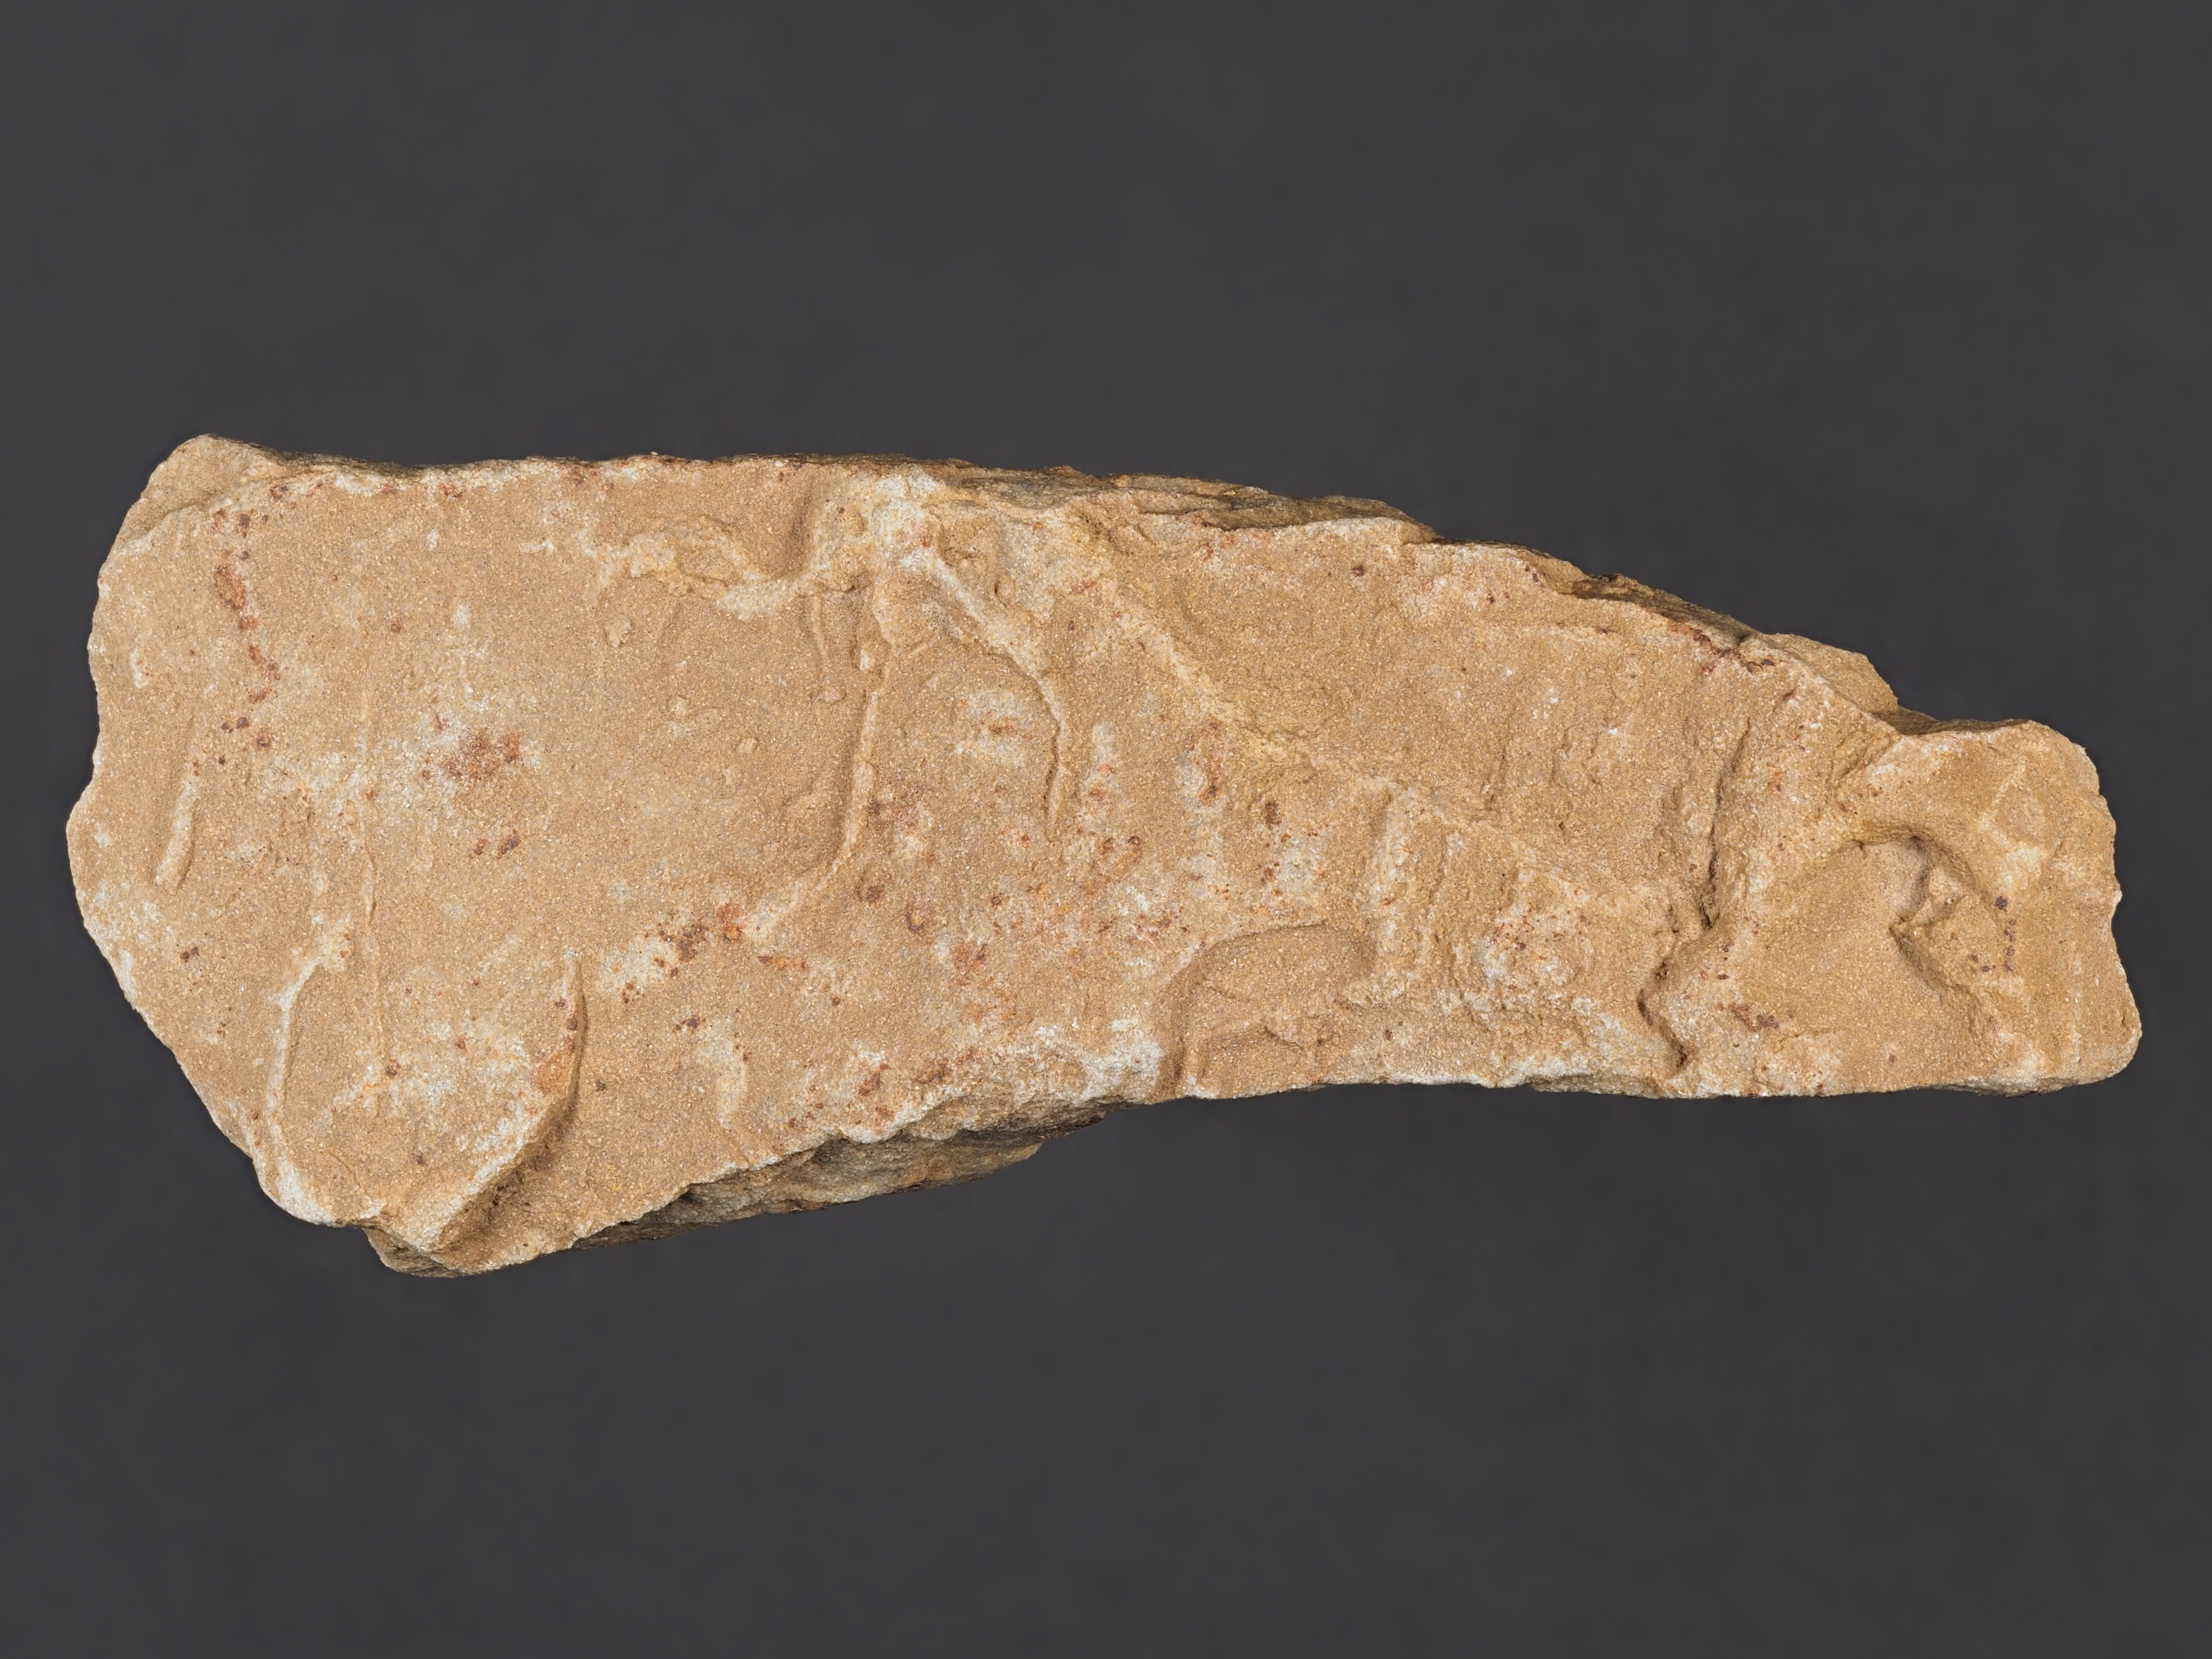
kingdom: Chromista
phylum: Foraminifera
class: Globothalamea
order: Rotaliida
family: Discocyclinidae
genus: Discocyclina
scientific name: Discocyclina
